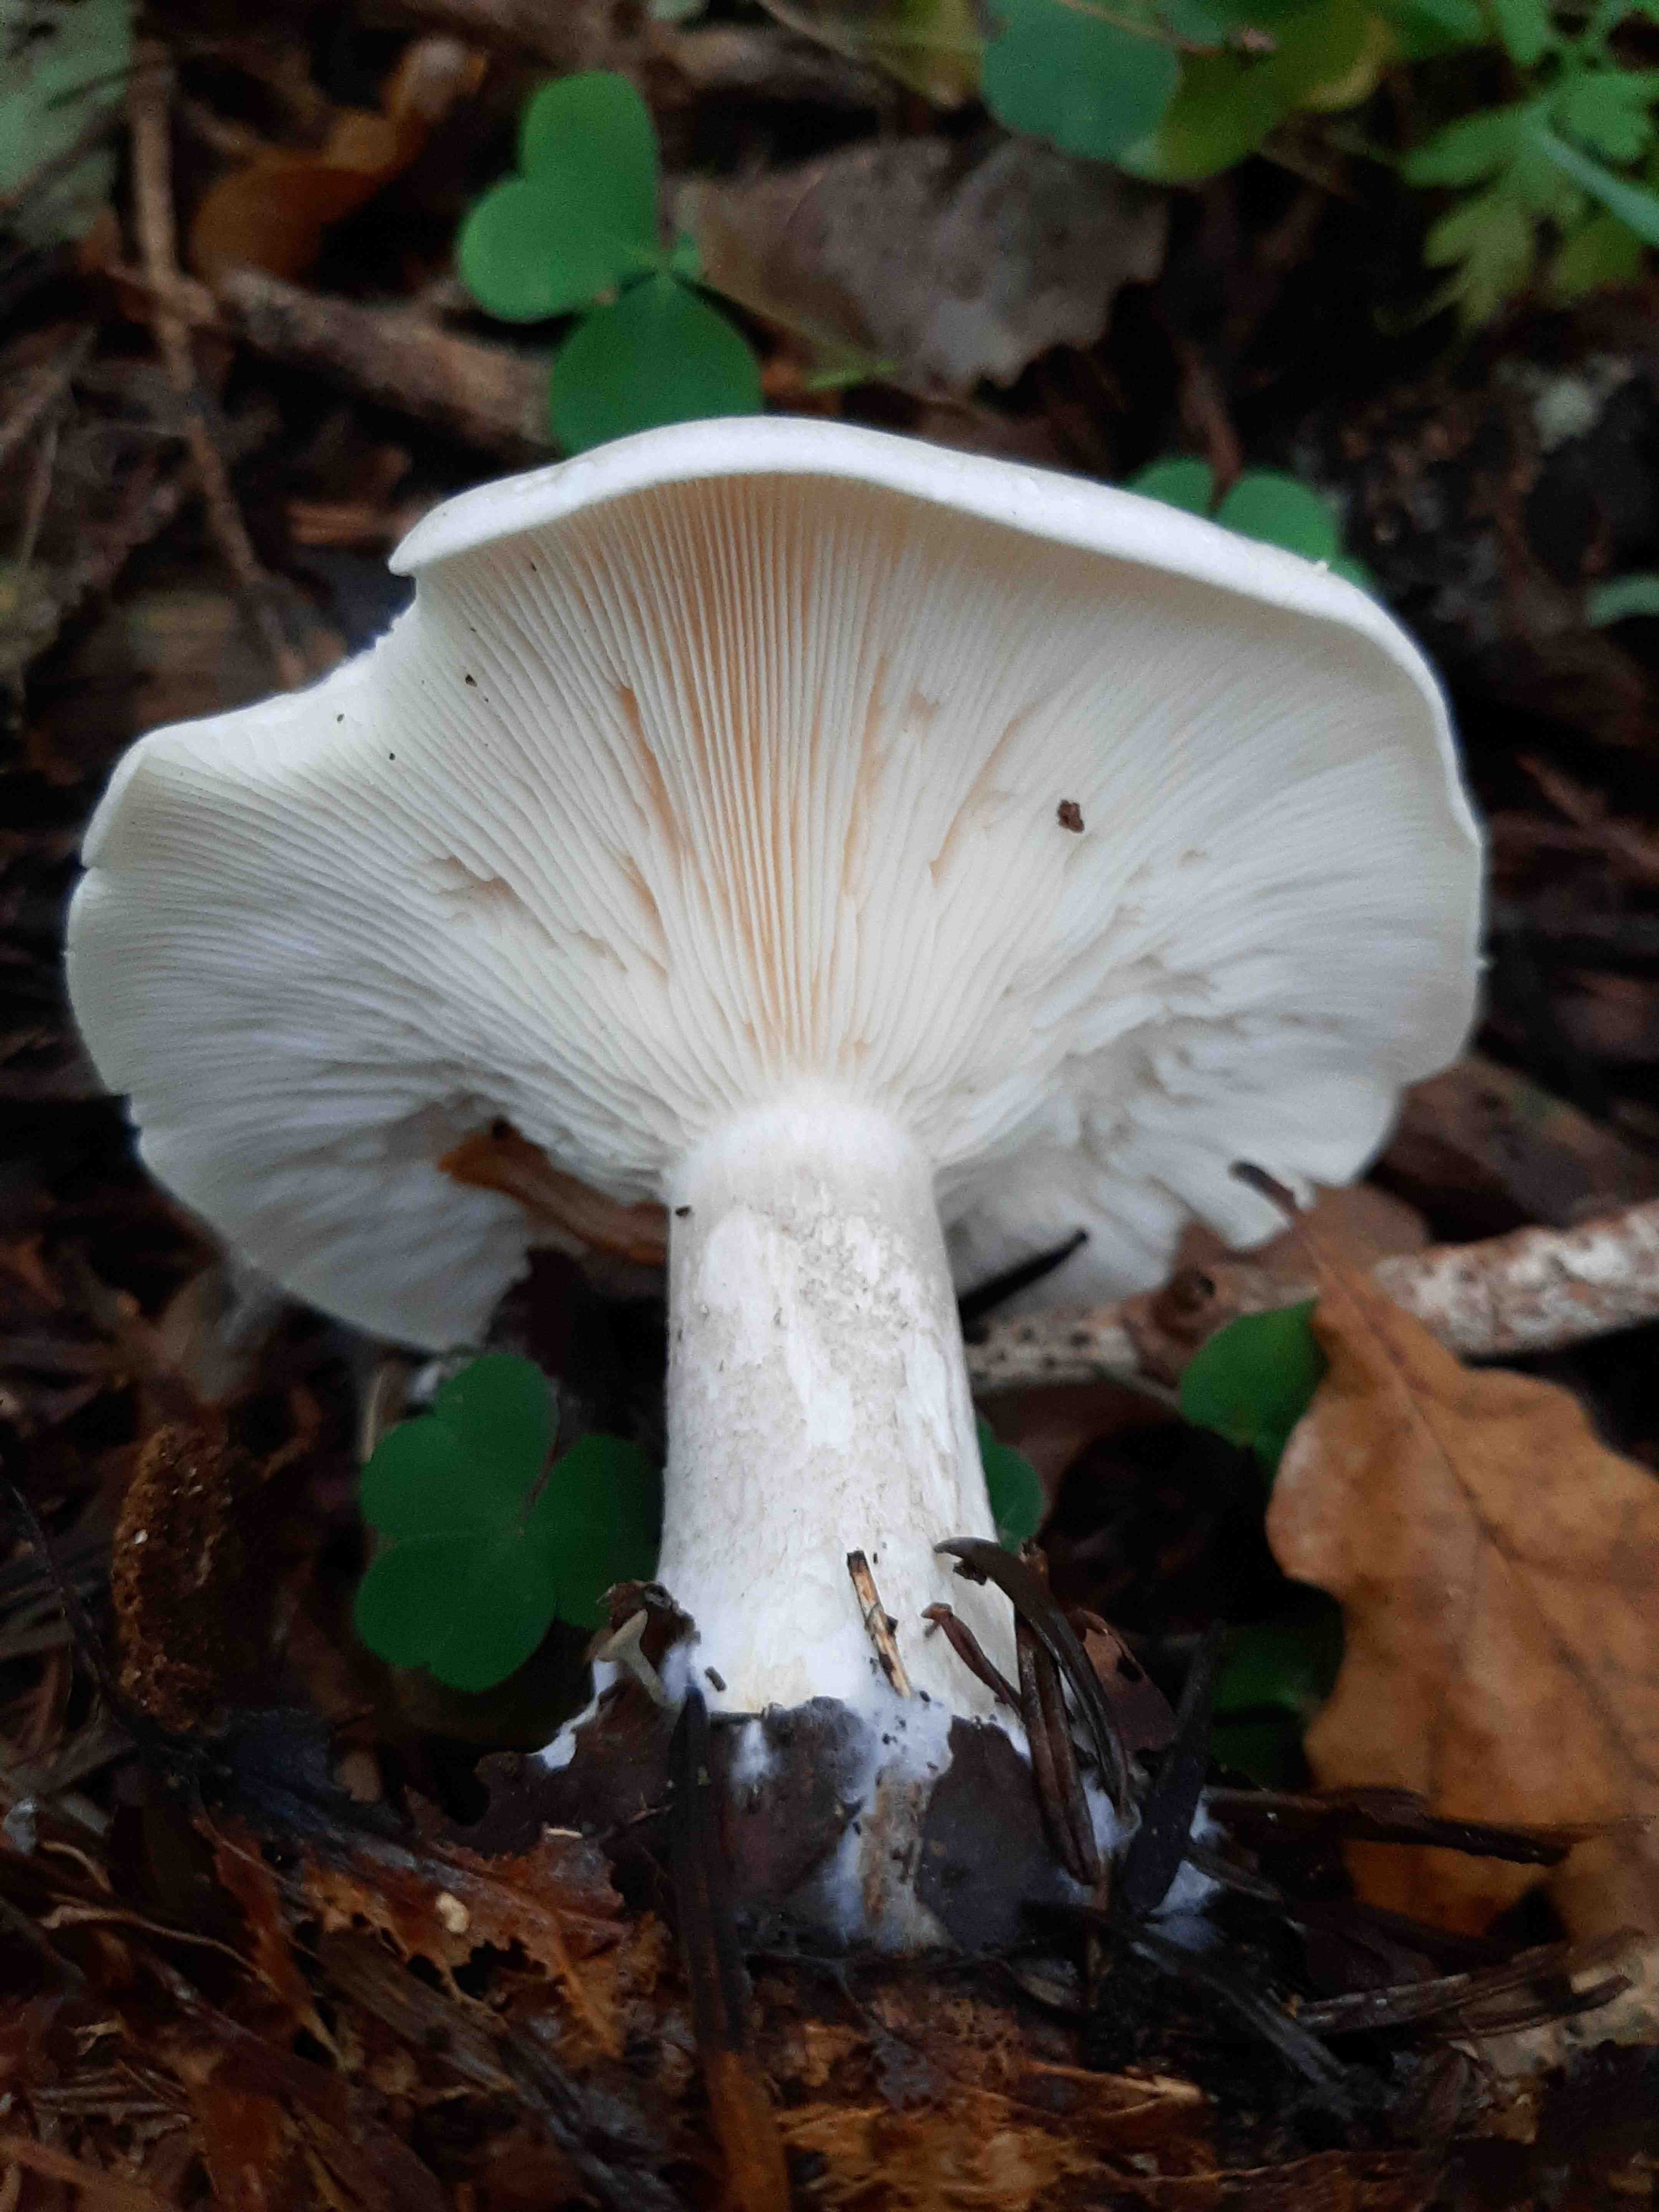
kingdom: Fungi
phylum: Basidiomycota
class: Agaricomycetes
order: Agaricales
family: Tricholomataceae
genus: Clitocybe
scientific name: Clitocybe nebularis
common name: tåge-tragthat
